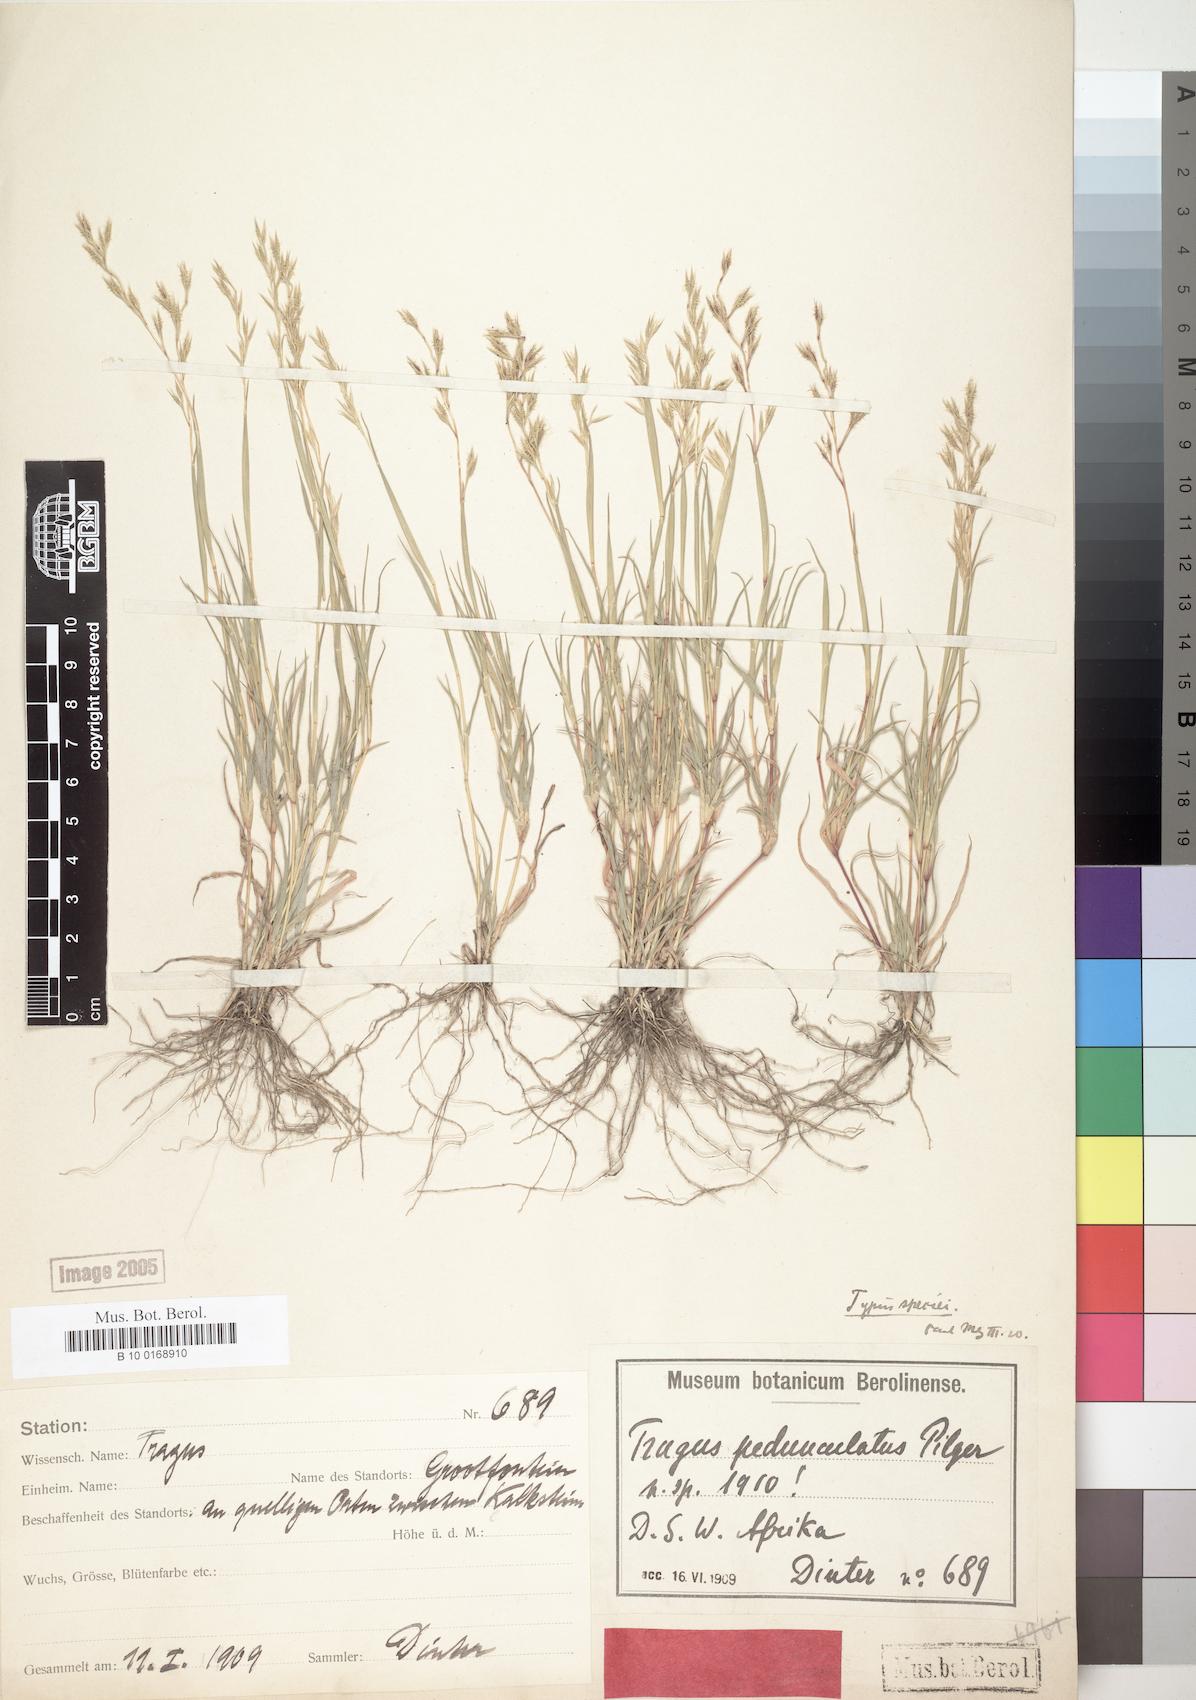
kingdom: Plantae
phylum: Tracheophyta
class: Liliopsida
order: Poales
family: Poaceae
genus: Orthacanthus
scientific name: Orthacanthus pedunculatus
